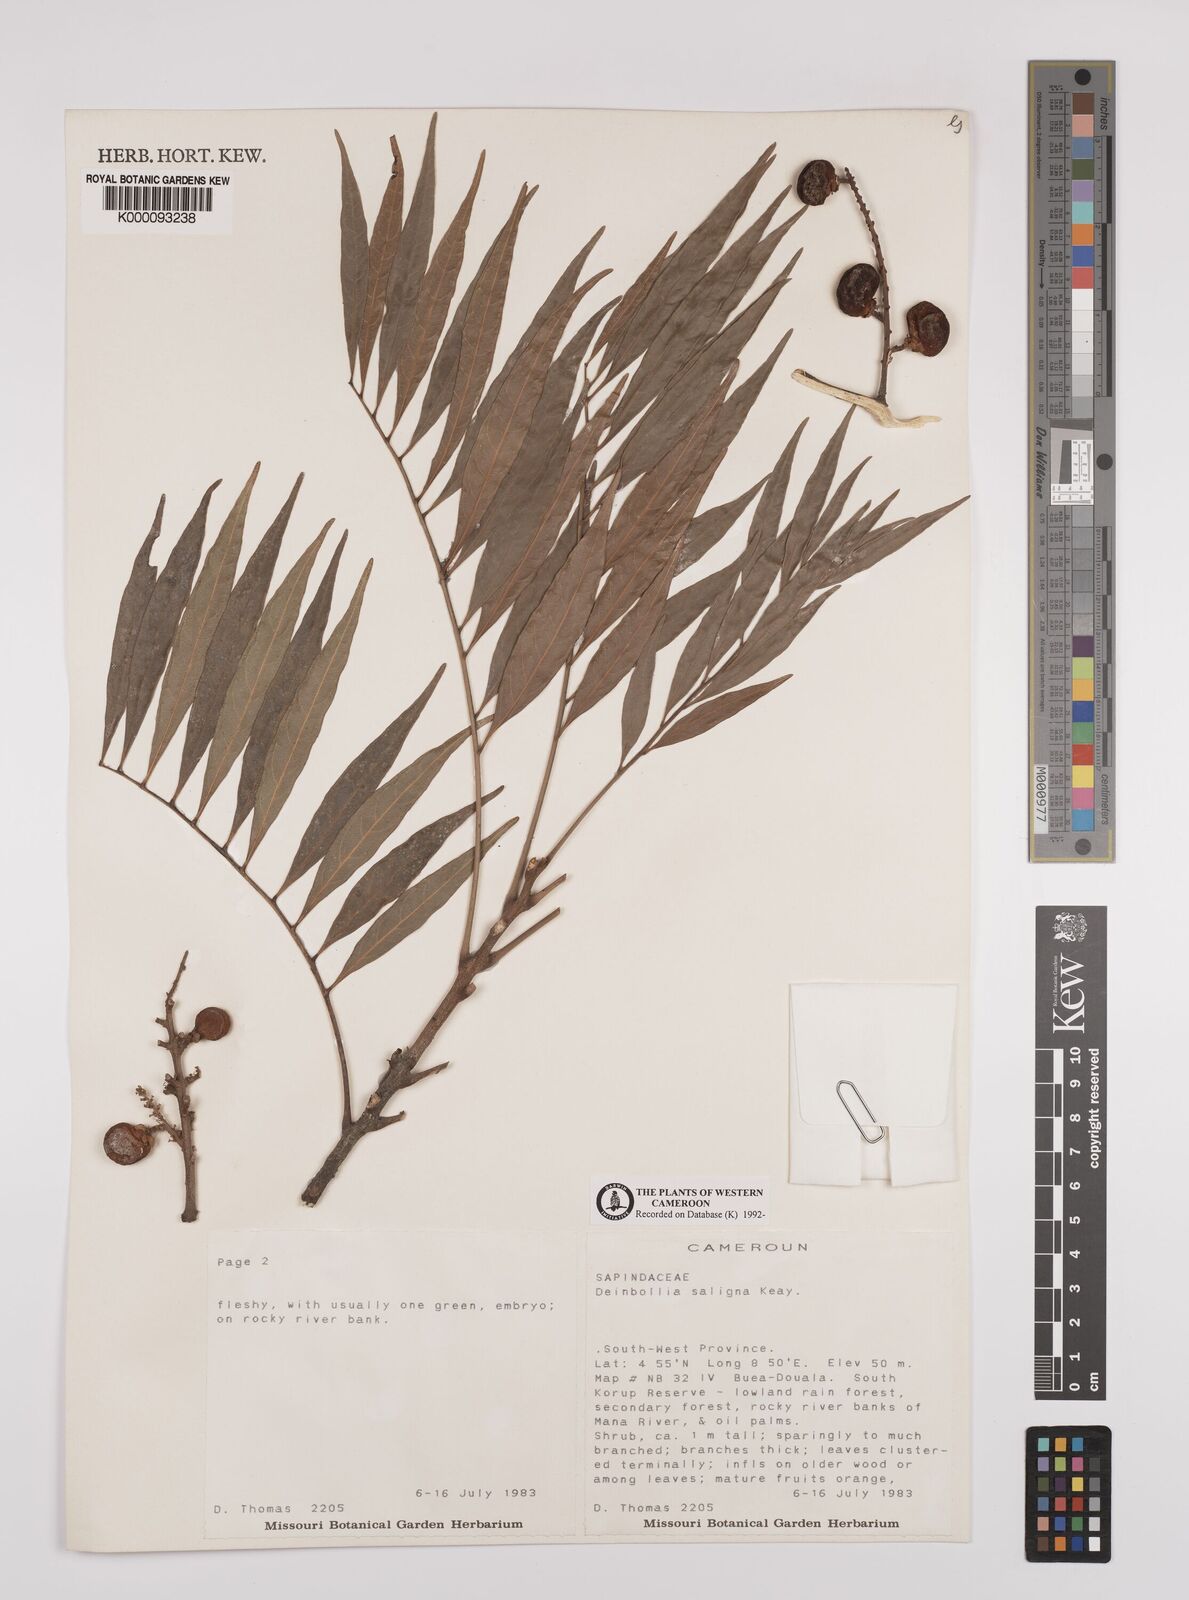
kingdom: Plantae
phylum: Tracheophyta
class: Magnoliopsida
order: Sapindales
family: Sapindaceae
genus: Deinbollia
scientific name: Deinbollia saligna
